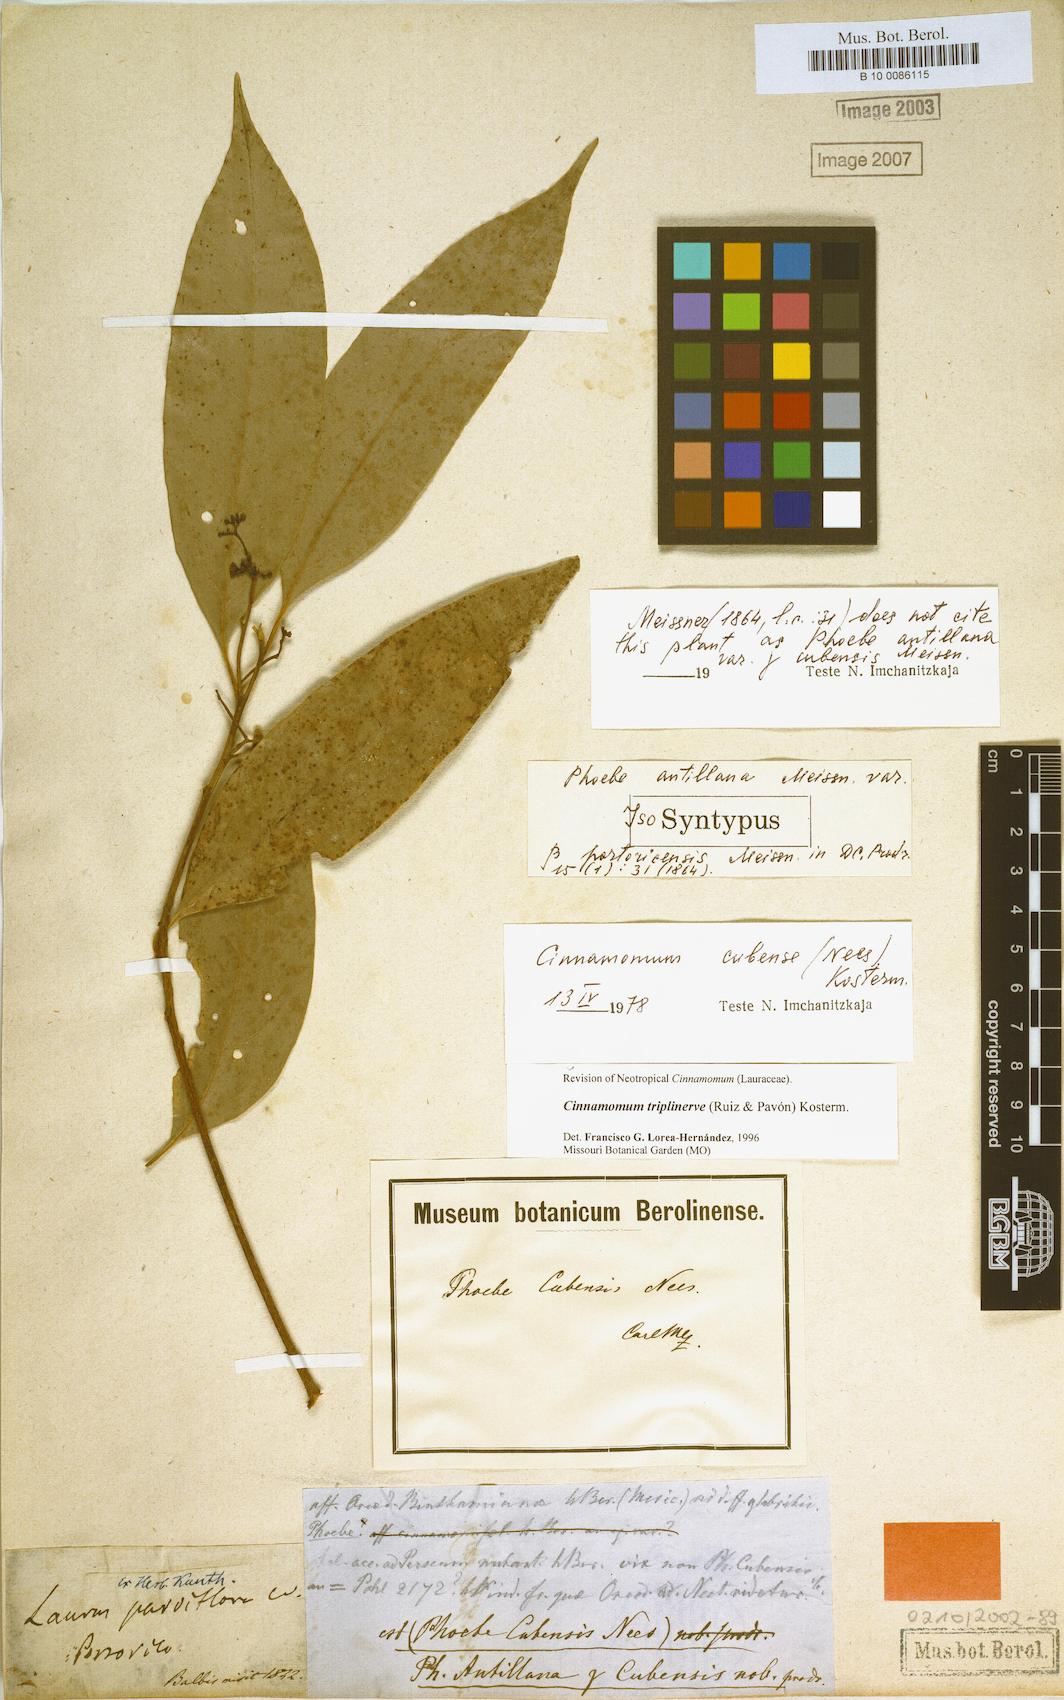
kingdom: Plantae
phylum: Tracheophyta
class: Magnoliopsida
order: Laurales
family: Lauraceae
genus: Aiouea
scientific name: Aiouea montana
